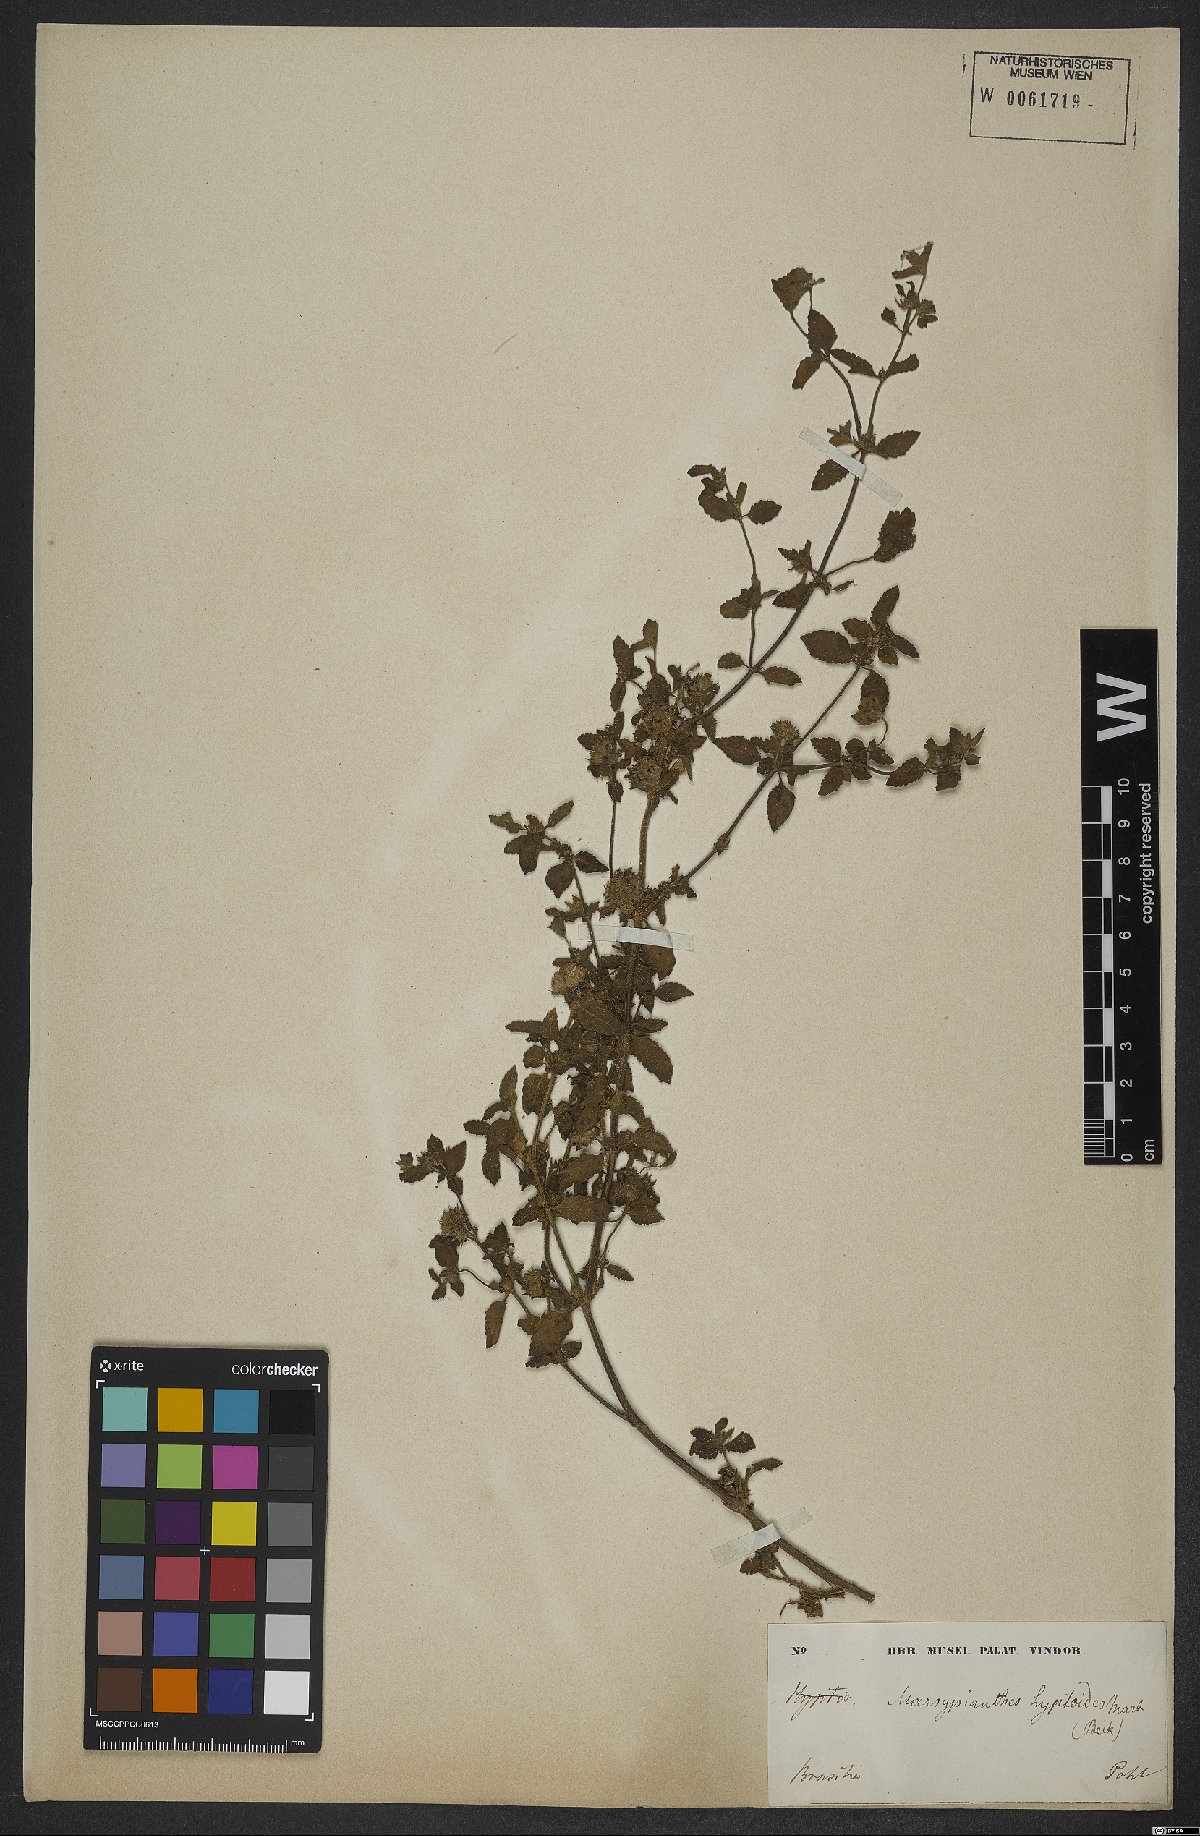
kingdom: Plantae
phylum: Tracheophyta
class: Magnoliopsida
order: Lamiales
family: Lamiaceae
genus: Marsypianthes
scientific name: Marsypianthes chamaedrys
